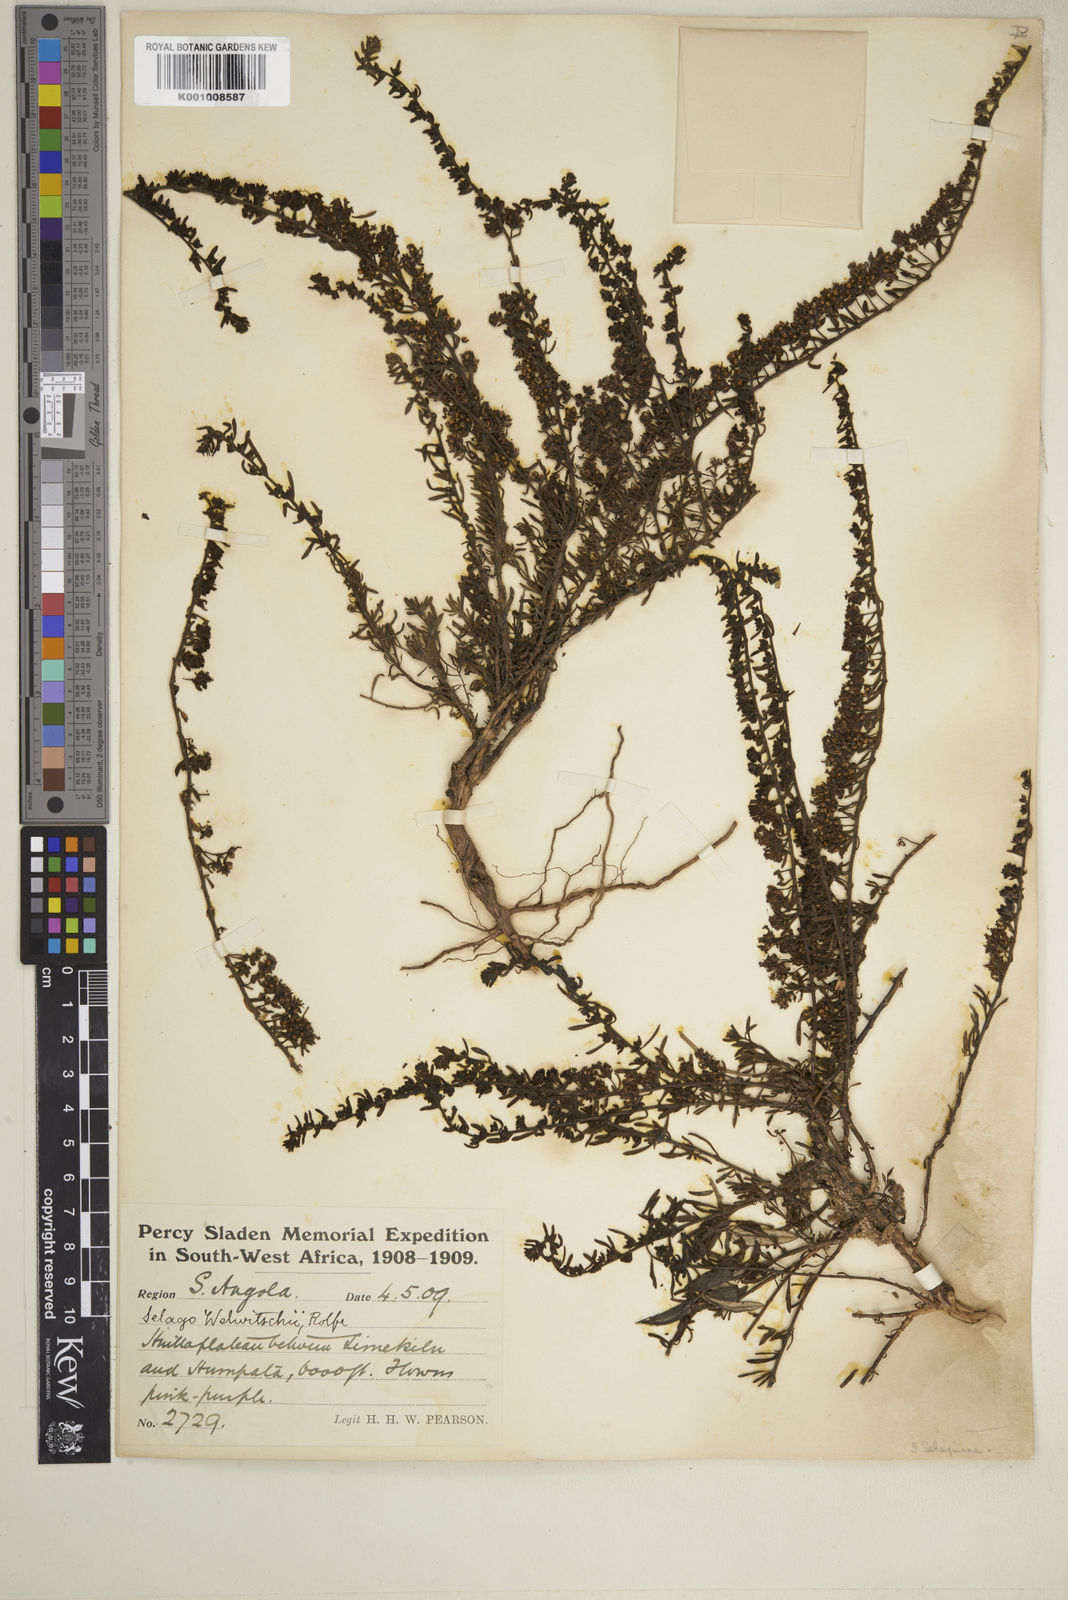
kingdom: Plantae
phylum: Tracheophyta
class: Magnoliopsida
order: Lamiales
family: Scrophulariaceae
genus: Selago
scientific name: Selago welwitschii
